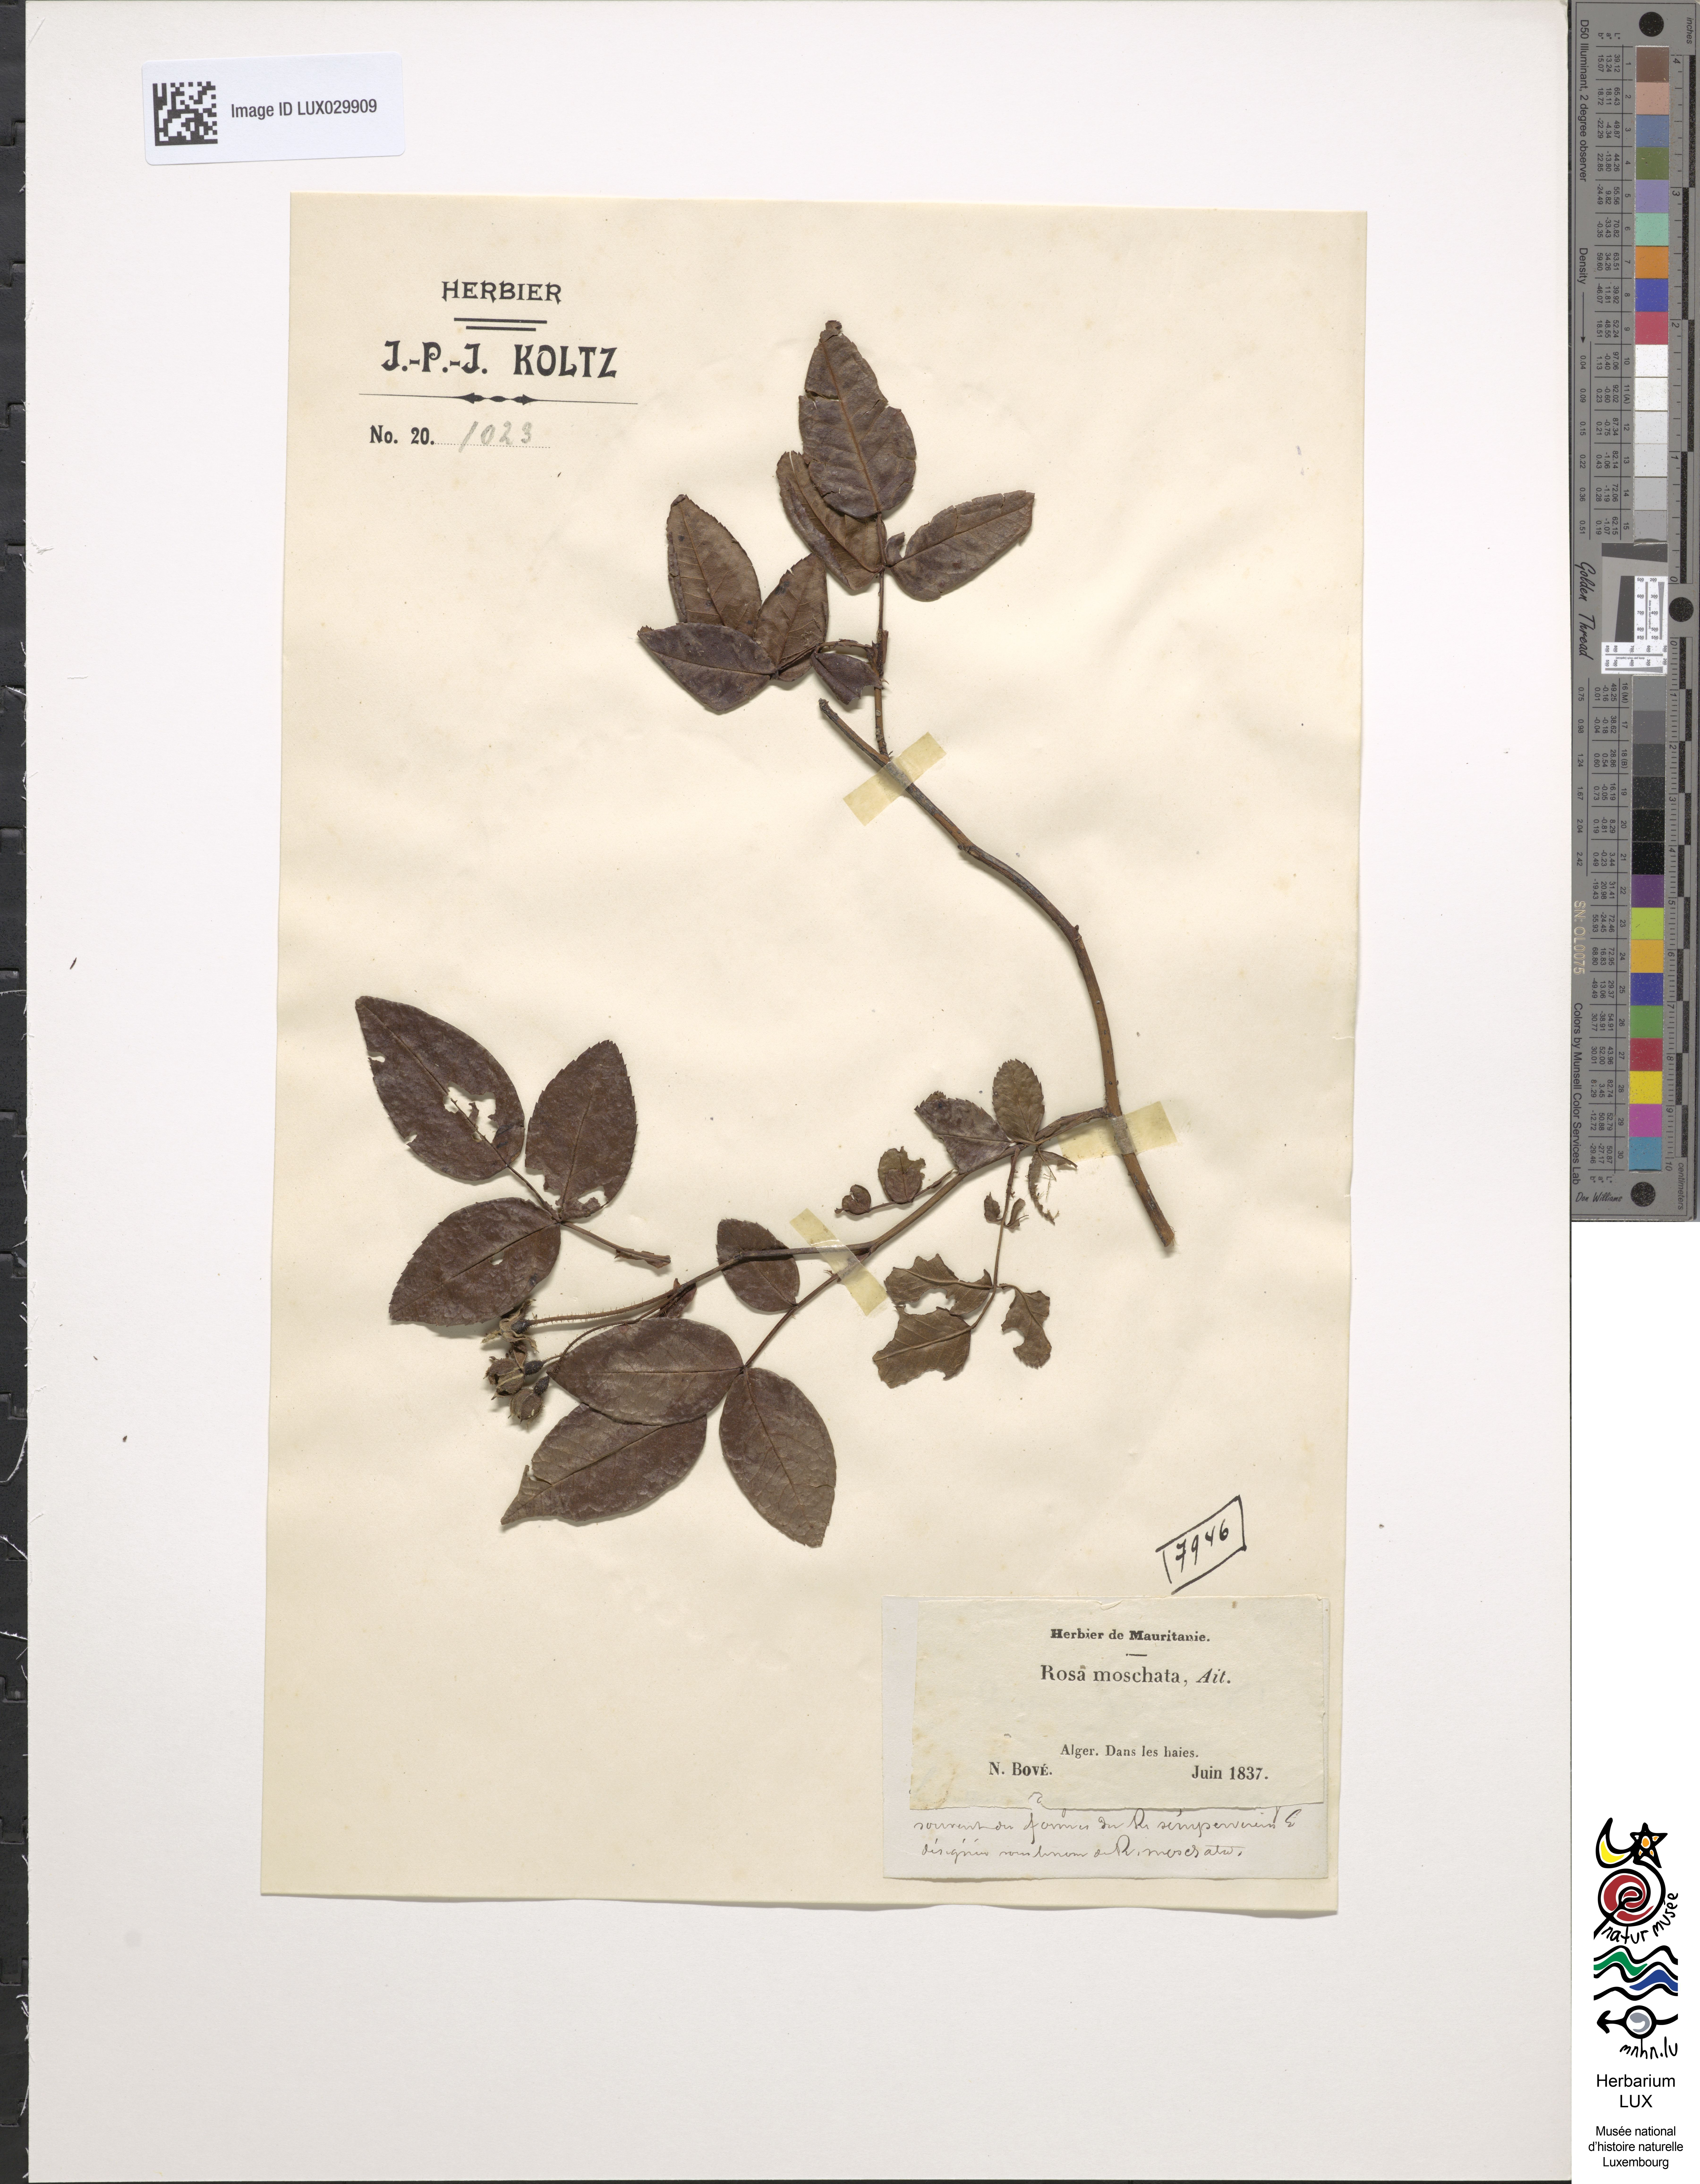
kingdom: Plantae
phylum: Tracheophyta
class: Magnoliopsida
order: Rosales
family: Rosaceae
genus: Rosa
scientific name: Rosa sempervirens
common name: Evergreen rose
